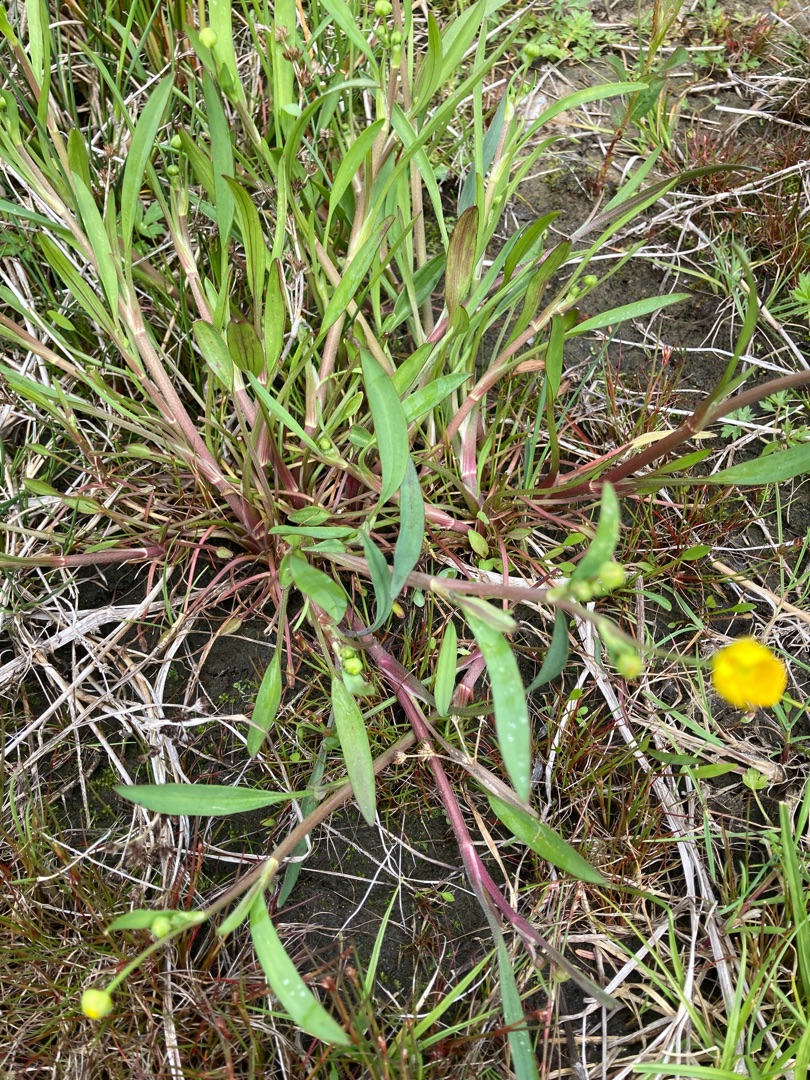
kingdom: Plantae
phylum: Tracheophyta
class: Magnoliopsida
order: Ranunculales
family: Ranunculaceae
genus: Ranunculus
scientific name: Ranunculus flammula
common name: Kær-ranunkel
